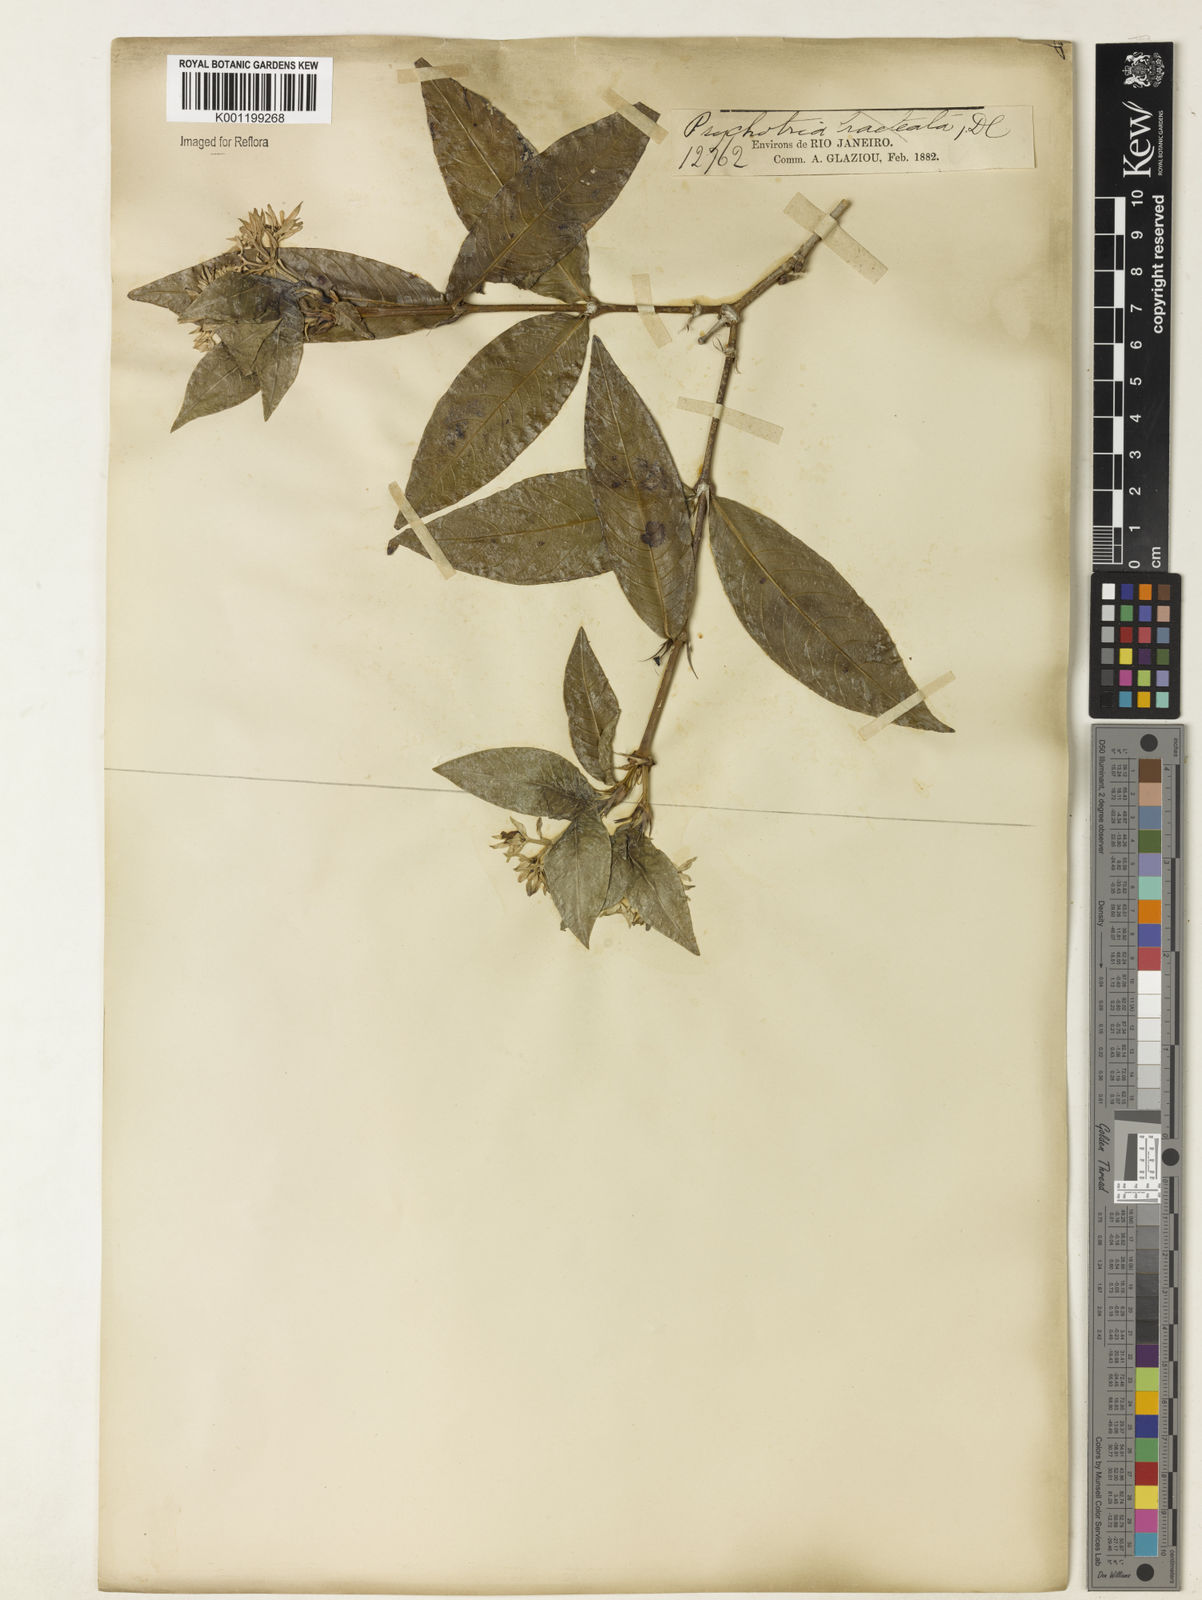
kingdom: Plantae
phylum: Tracheophyta
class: Magnoliopsida
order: Gentianales
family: Rubiaceae
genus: Palicourea
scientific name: Palicourea violacea
